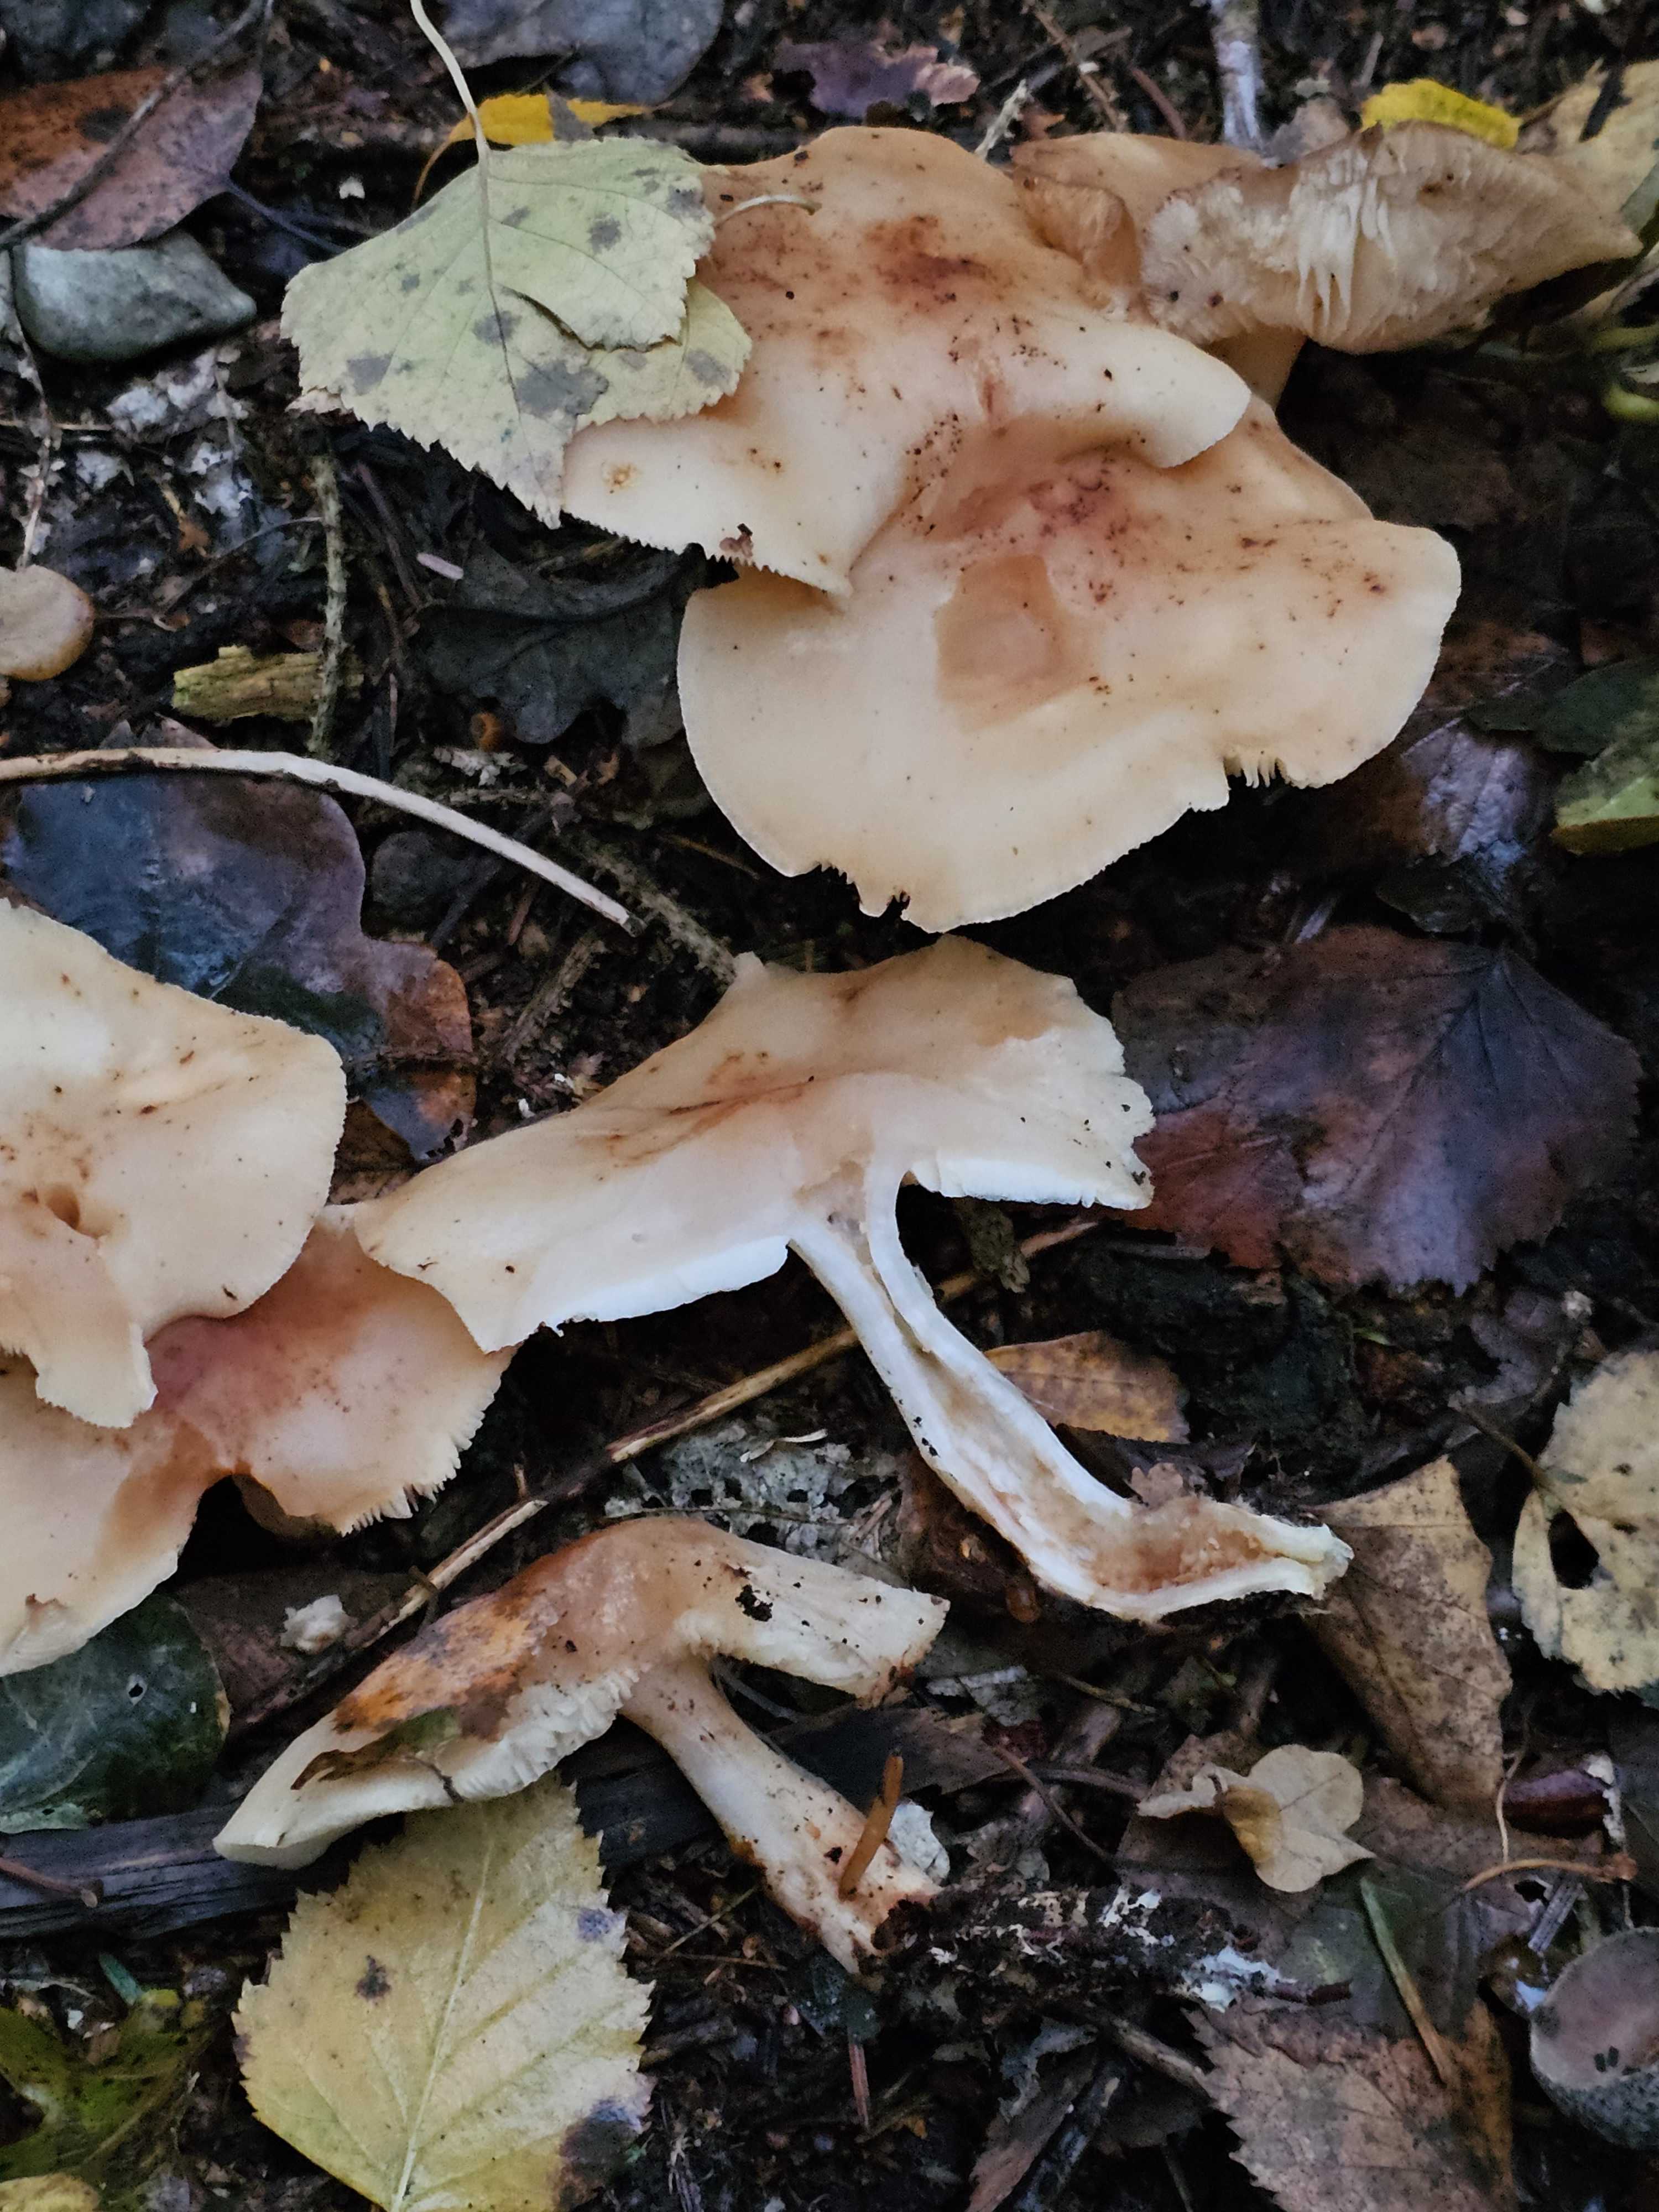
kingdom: Fungi
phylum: Basidiomycota
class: Agaricomycetes
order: Agaricales
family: Omphalotaceae
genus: Rhodocollybia
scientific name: Rhodocollybia maculata
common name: plettet fladhat
